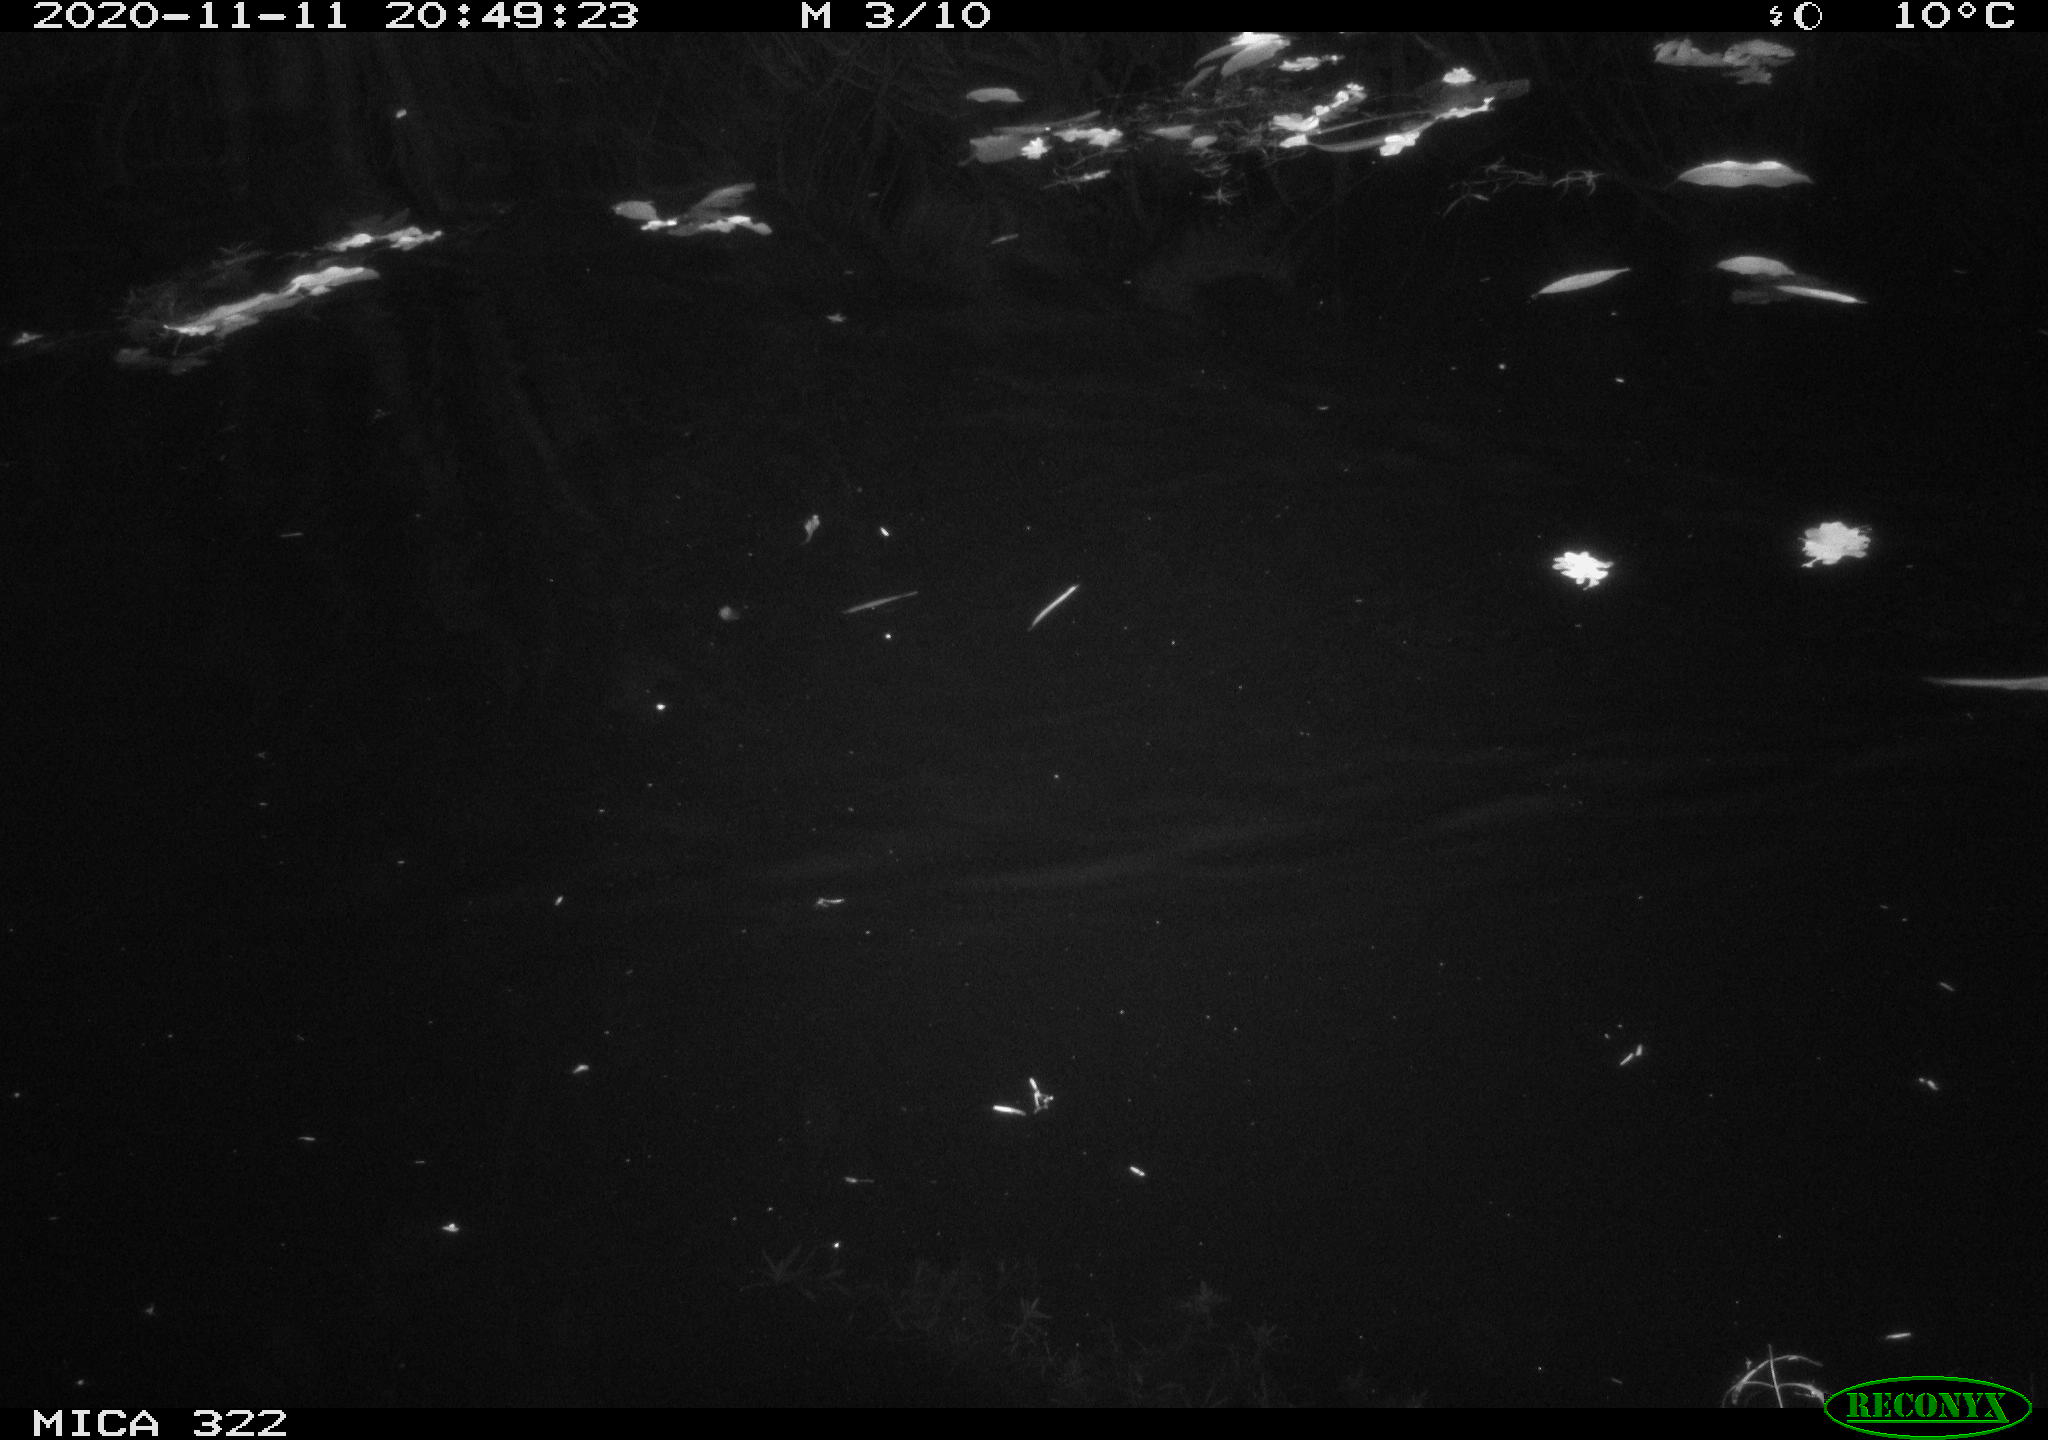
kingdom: Animalia
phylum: Chordata
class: Mammalia
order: Rodentia
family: Muridae
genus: Rattus
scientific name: Rattus norvegicus
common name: Brown rat
